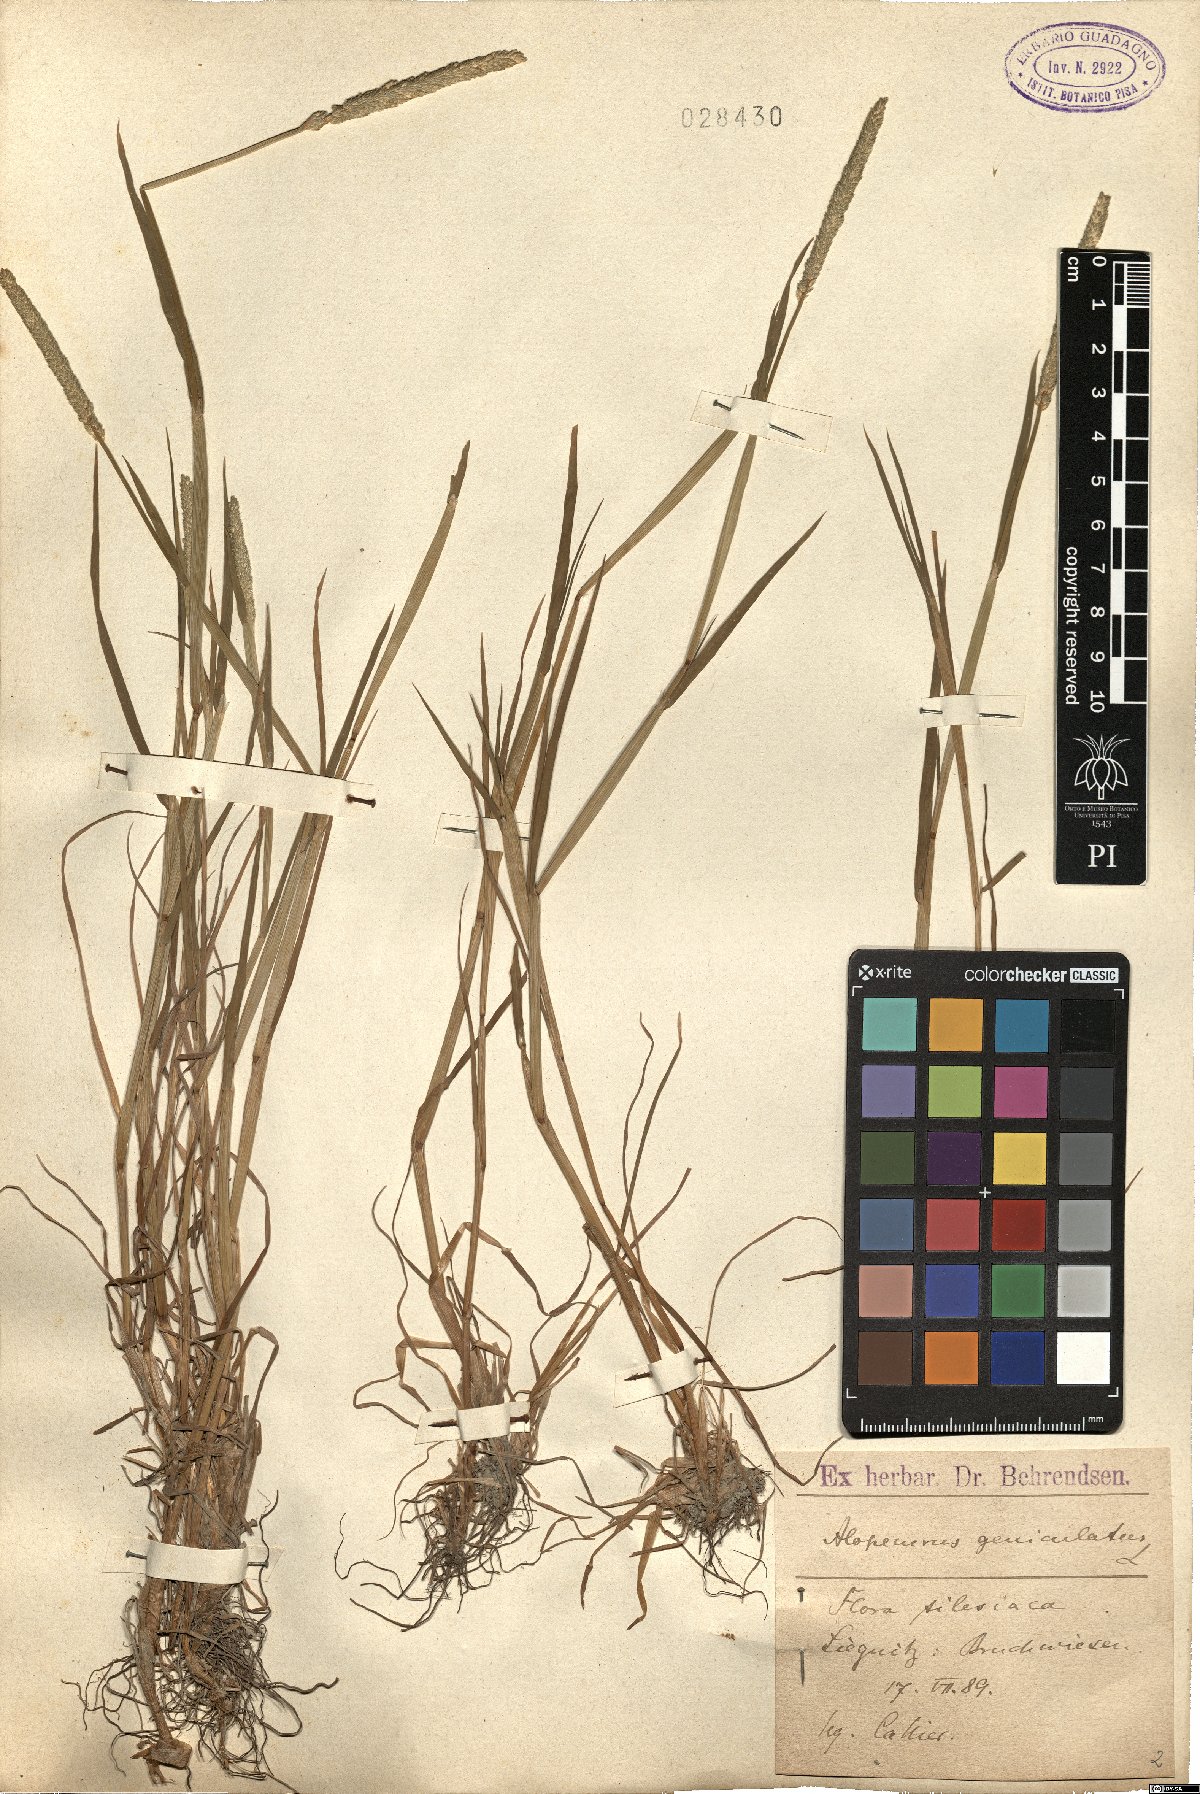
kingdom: Plantae
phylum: Tracheophyta
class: Liliopsida
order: Poales
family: Poaceae
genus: Alopecurus
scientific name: Alopecurus geniculatus
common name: Water foxtail
